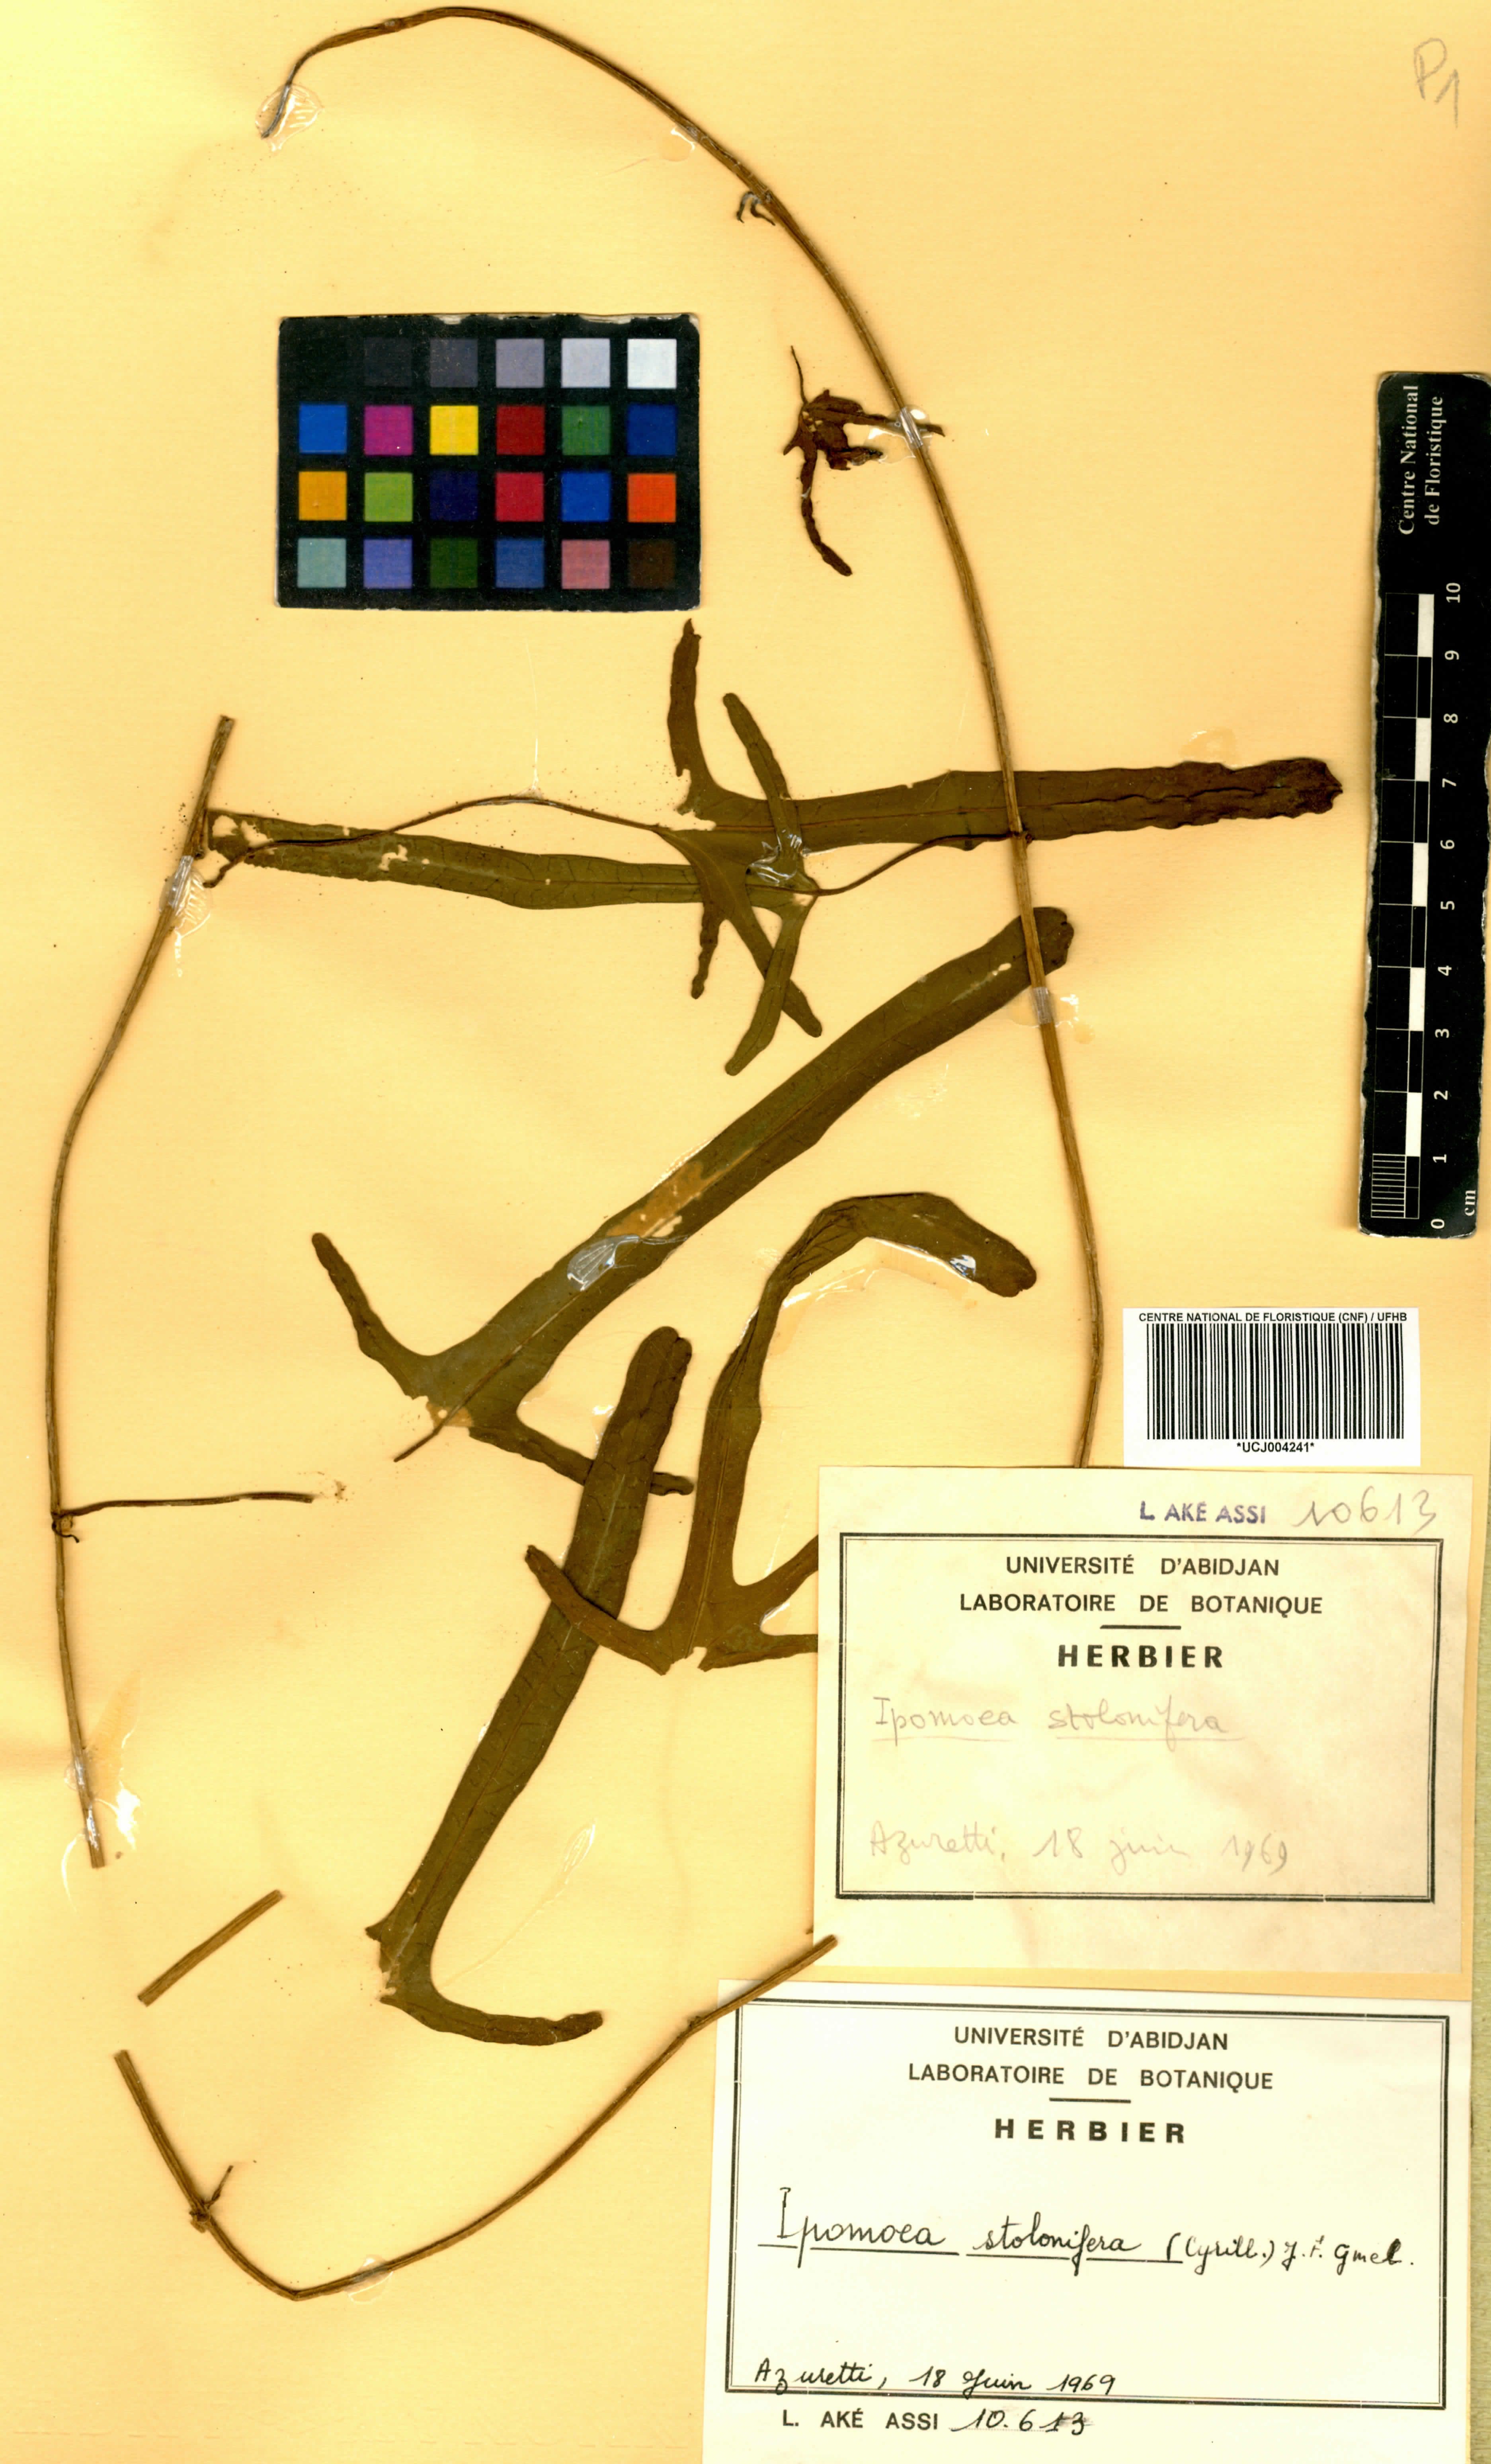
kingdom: Plantae
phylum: Tracheophyta
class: Magnoliopsida
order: Solanales
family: Convolvulaceae
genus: Ipomoea
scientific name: Ipomoea imperati
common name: Fiddle-leaf morning-glory
